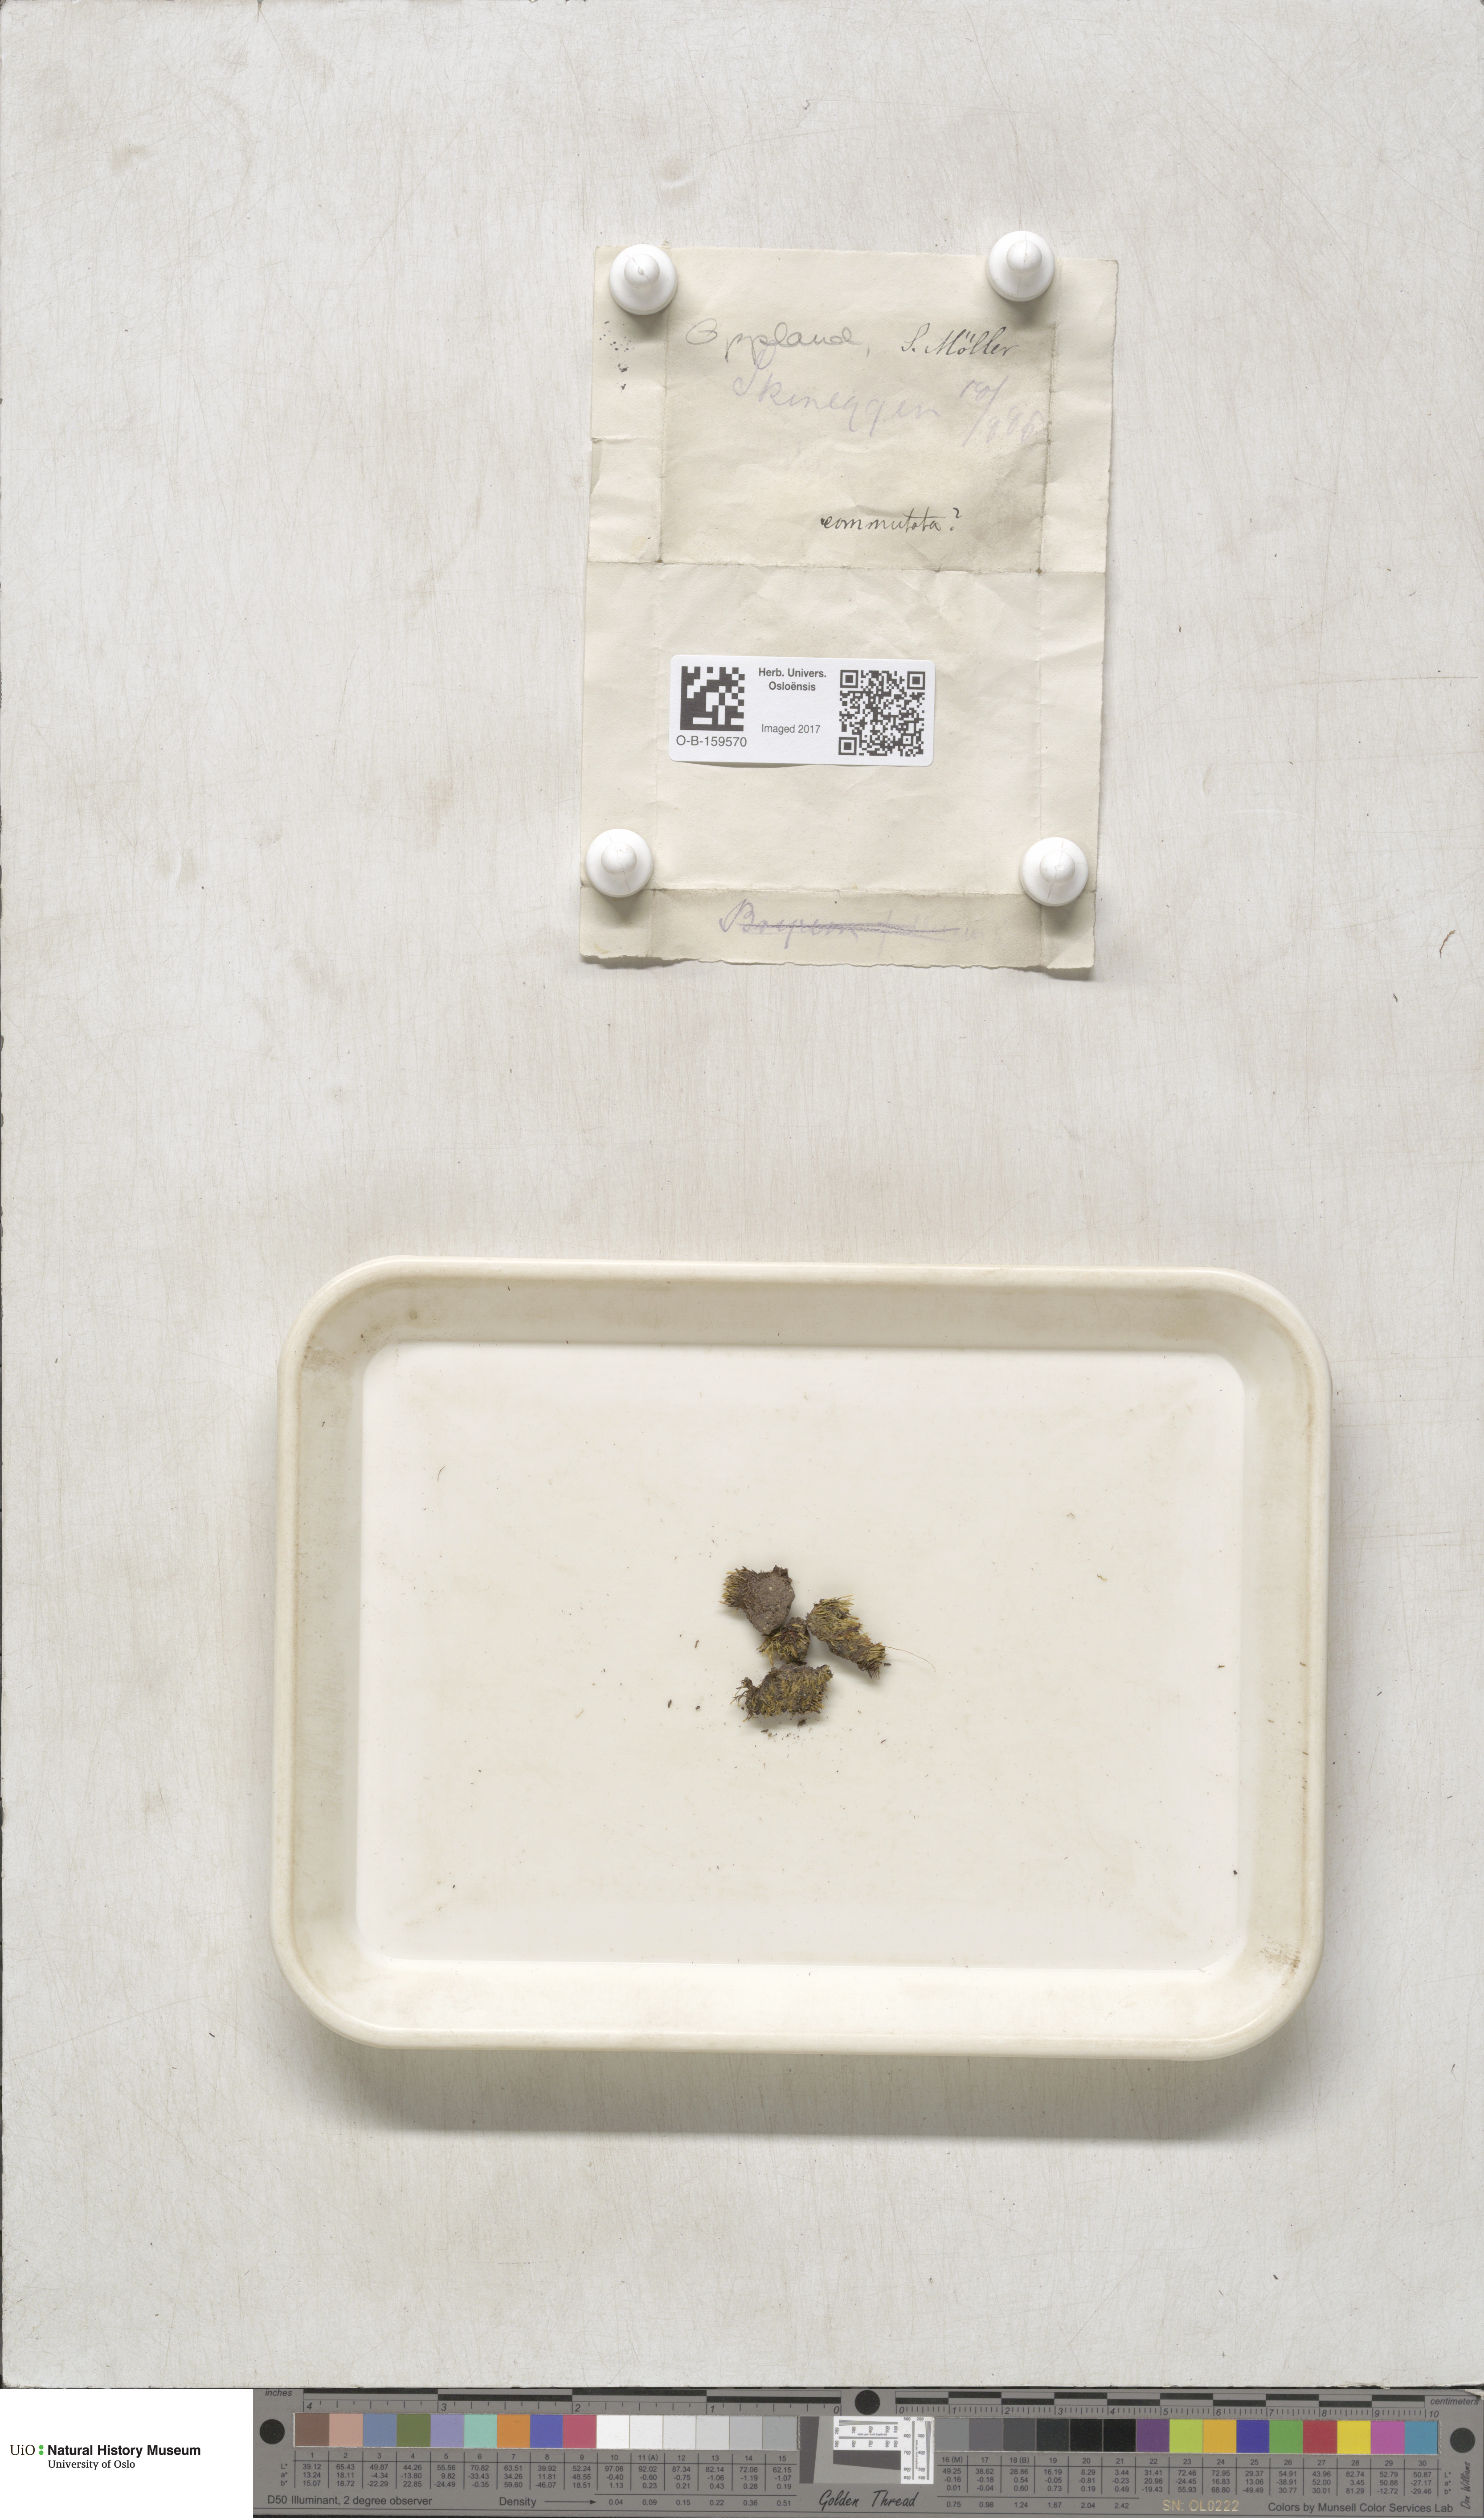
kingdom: Plantae
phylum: Bryophyta
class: Bryopsida
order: Bryales
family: Mniaceae
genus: Pohlia
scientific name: Pohlia drummondii
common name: Drummond's nodding moss
